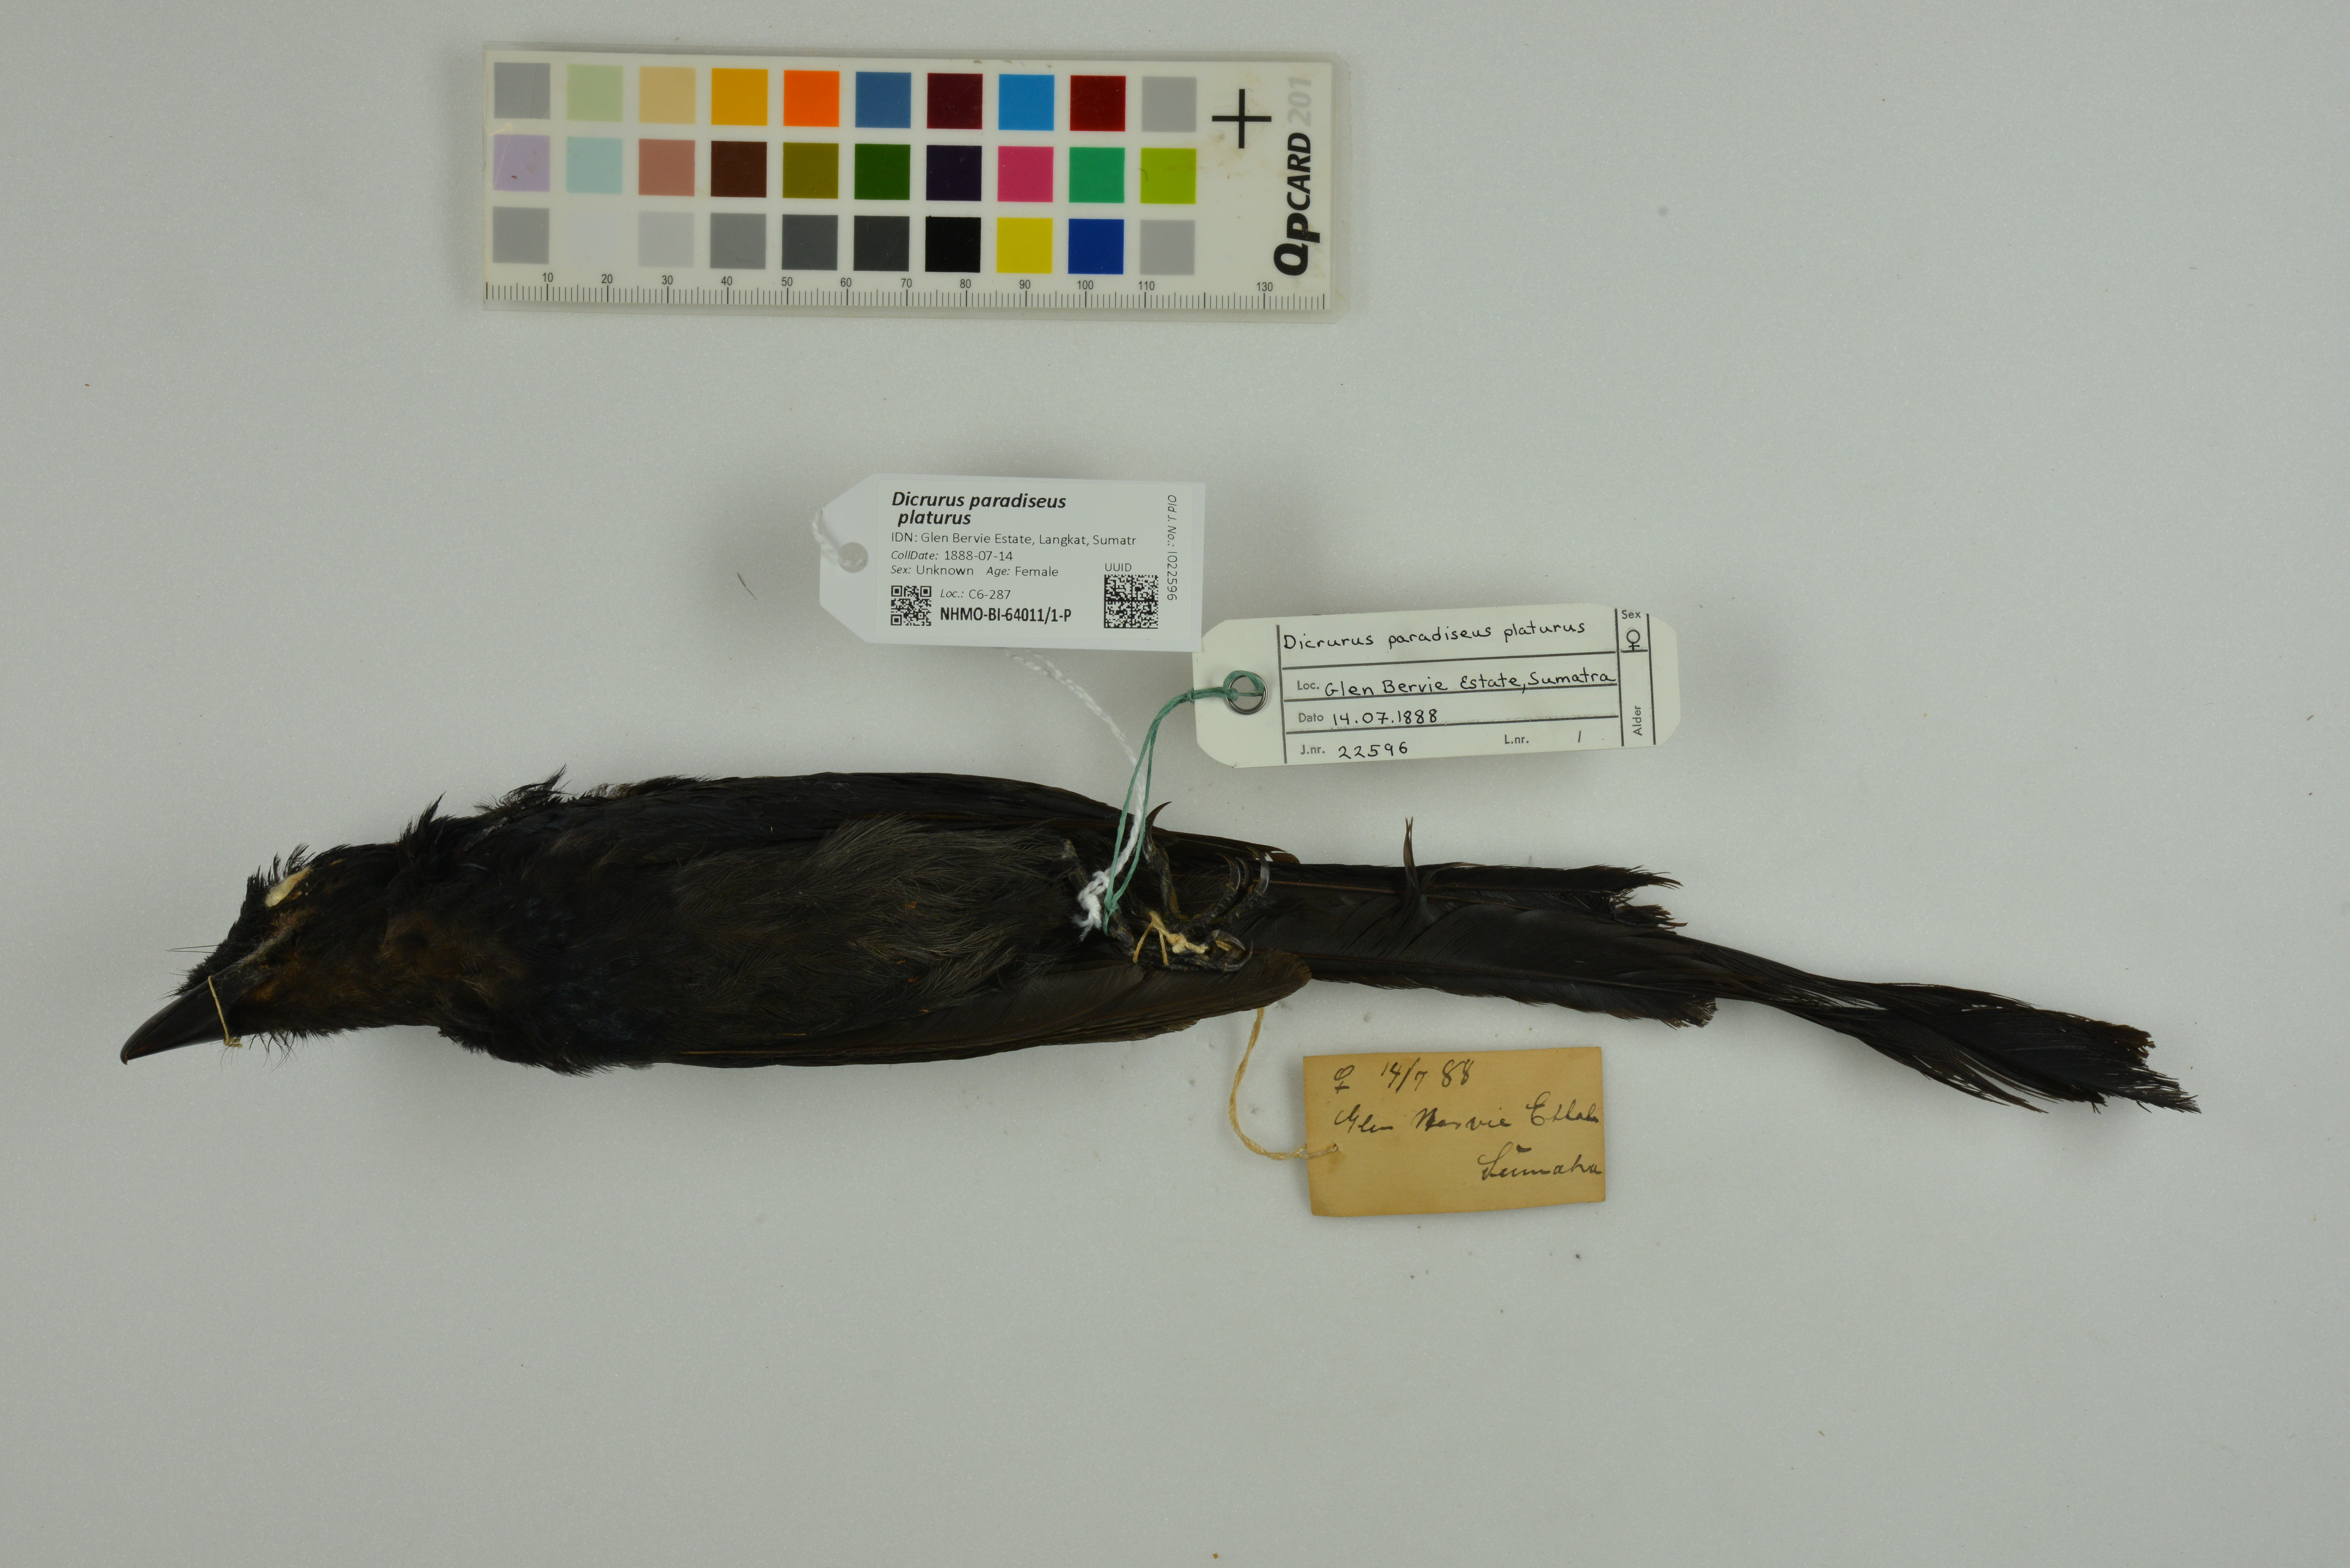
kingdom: Animalia
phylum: Chordata
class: Aves
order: Passeriformes
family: Dicruridae
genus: Dicrurus
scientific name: Dicrurus paradiseus
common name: Greater racket-tailed drongo
